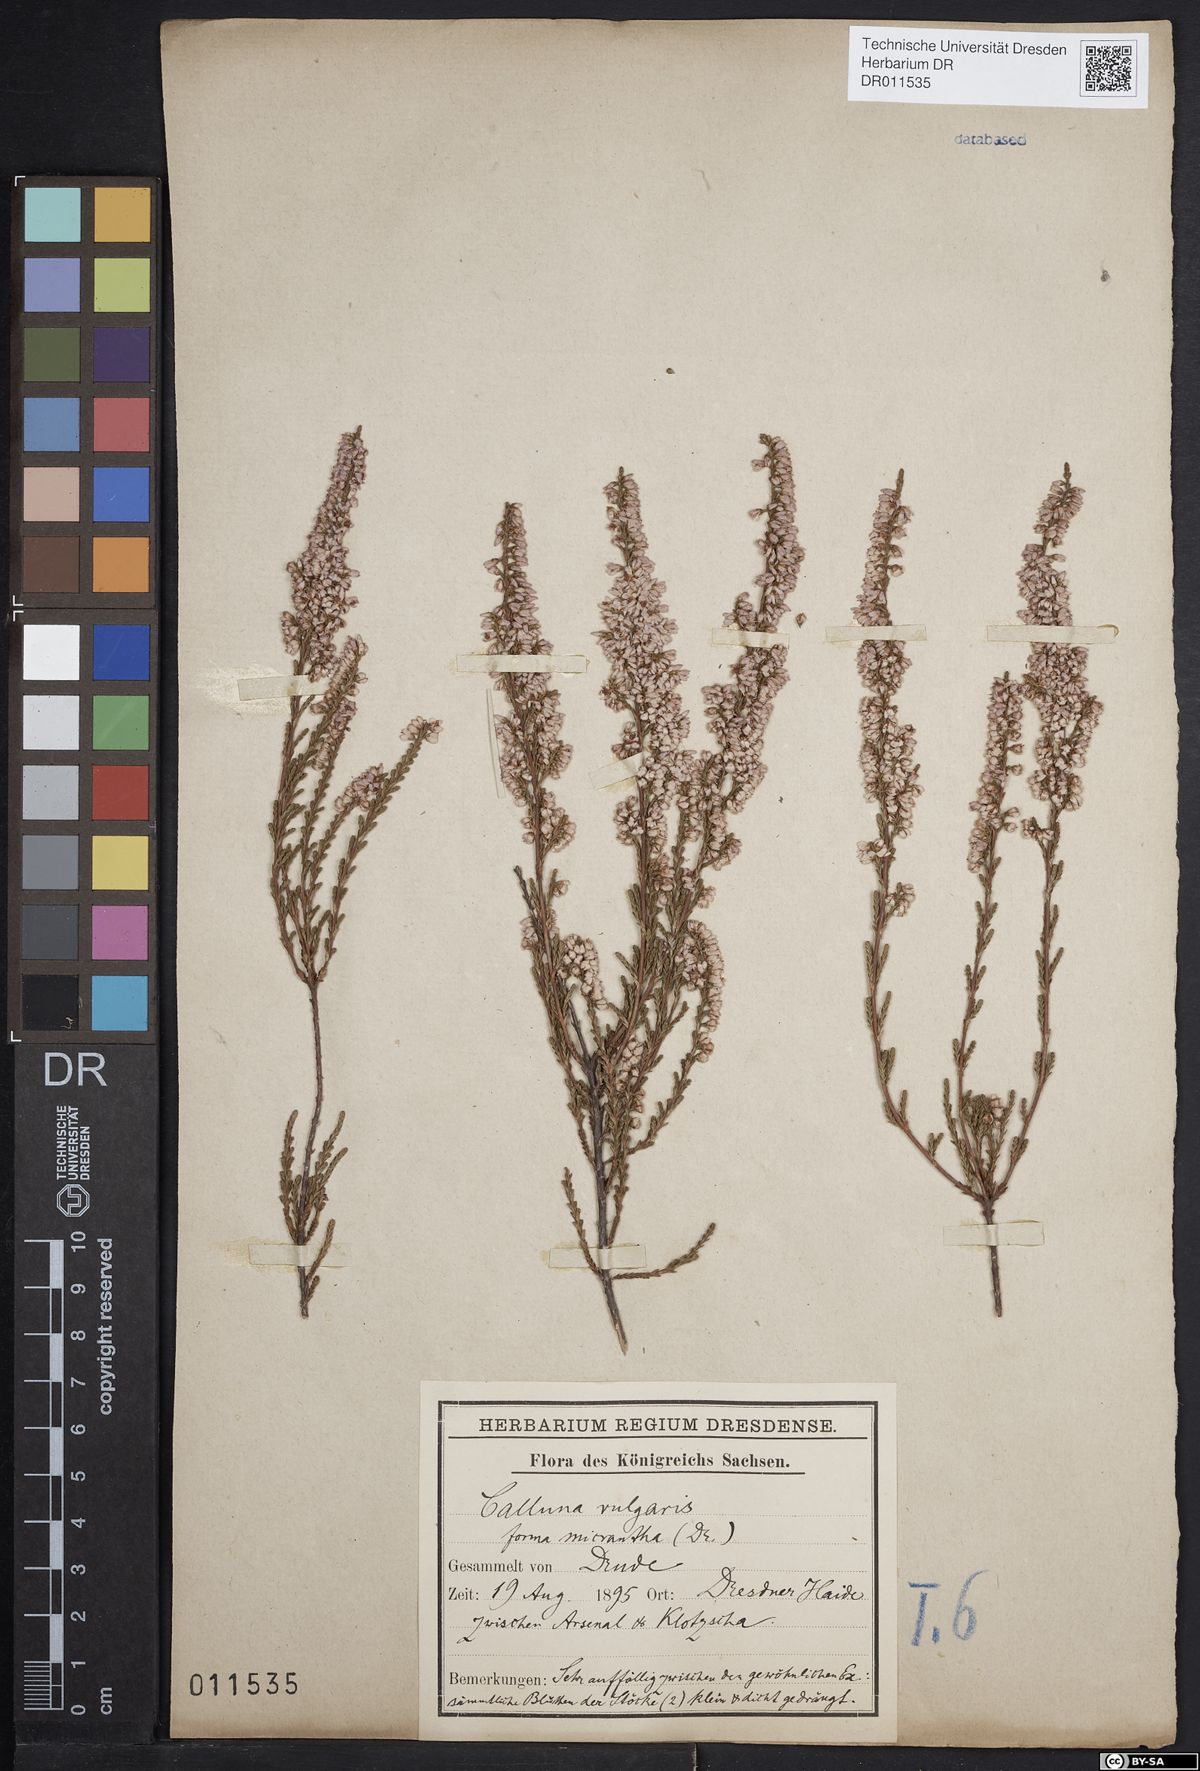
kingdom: Plantae
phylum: Tracheophyta
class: Magnoliopsida
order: Ericales
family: Ericaceae
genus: Calluna
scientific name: Calluna vulgaris
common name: Heather
